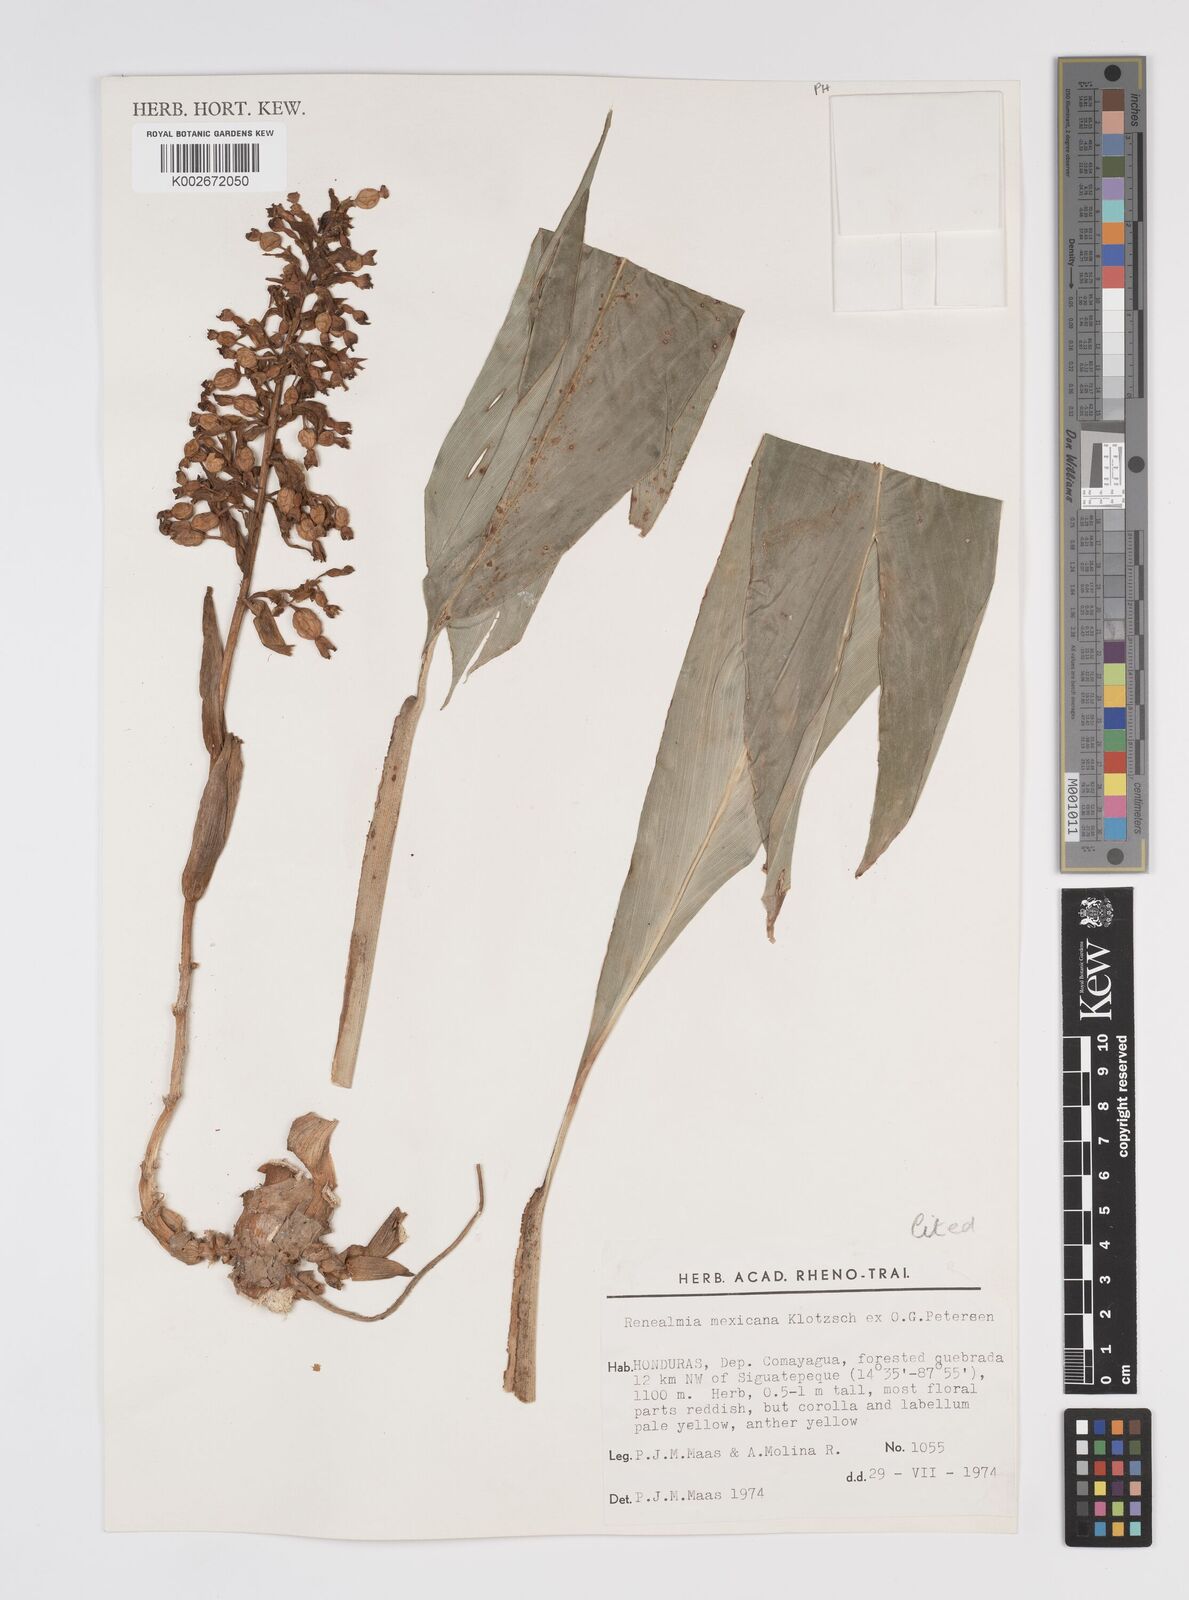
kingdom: Plantae
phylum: Tracheophyta
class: Liliopsida
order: Zingiberales
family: Zingiberaceae
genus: Renealmia
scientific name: Renealmia mexicana
